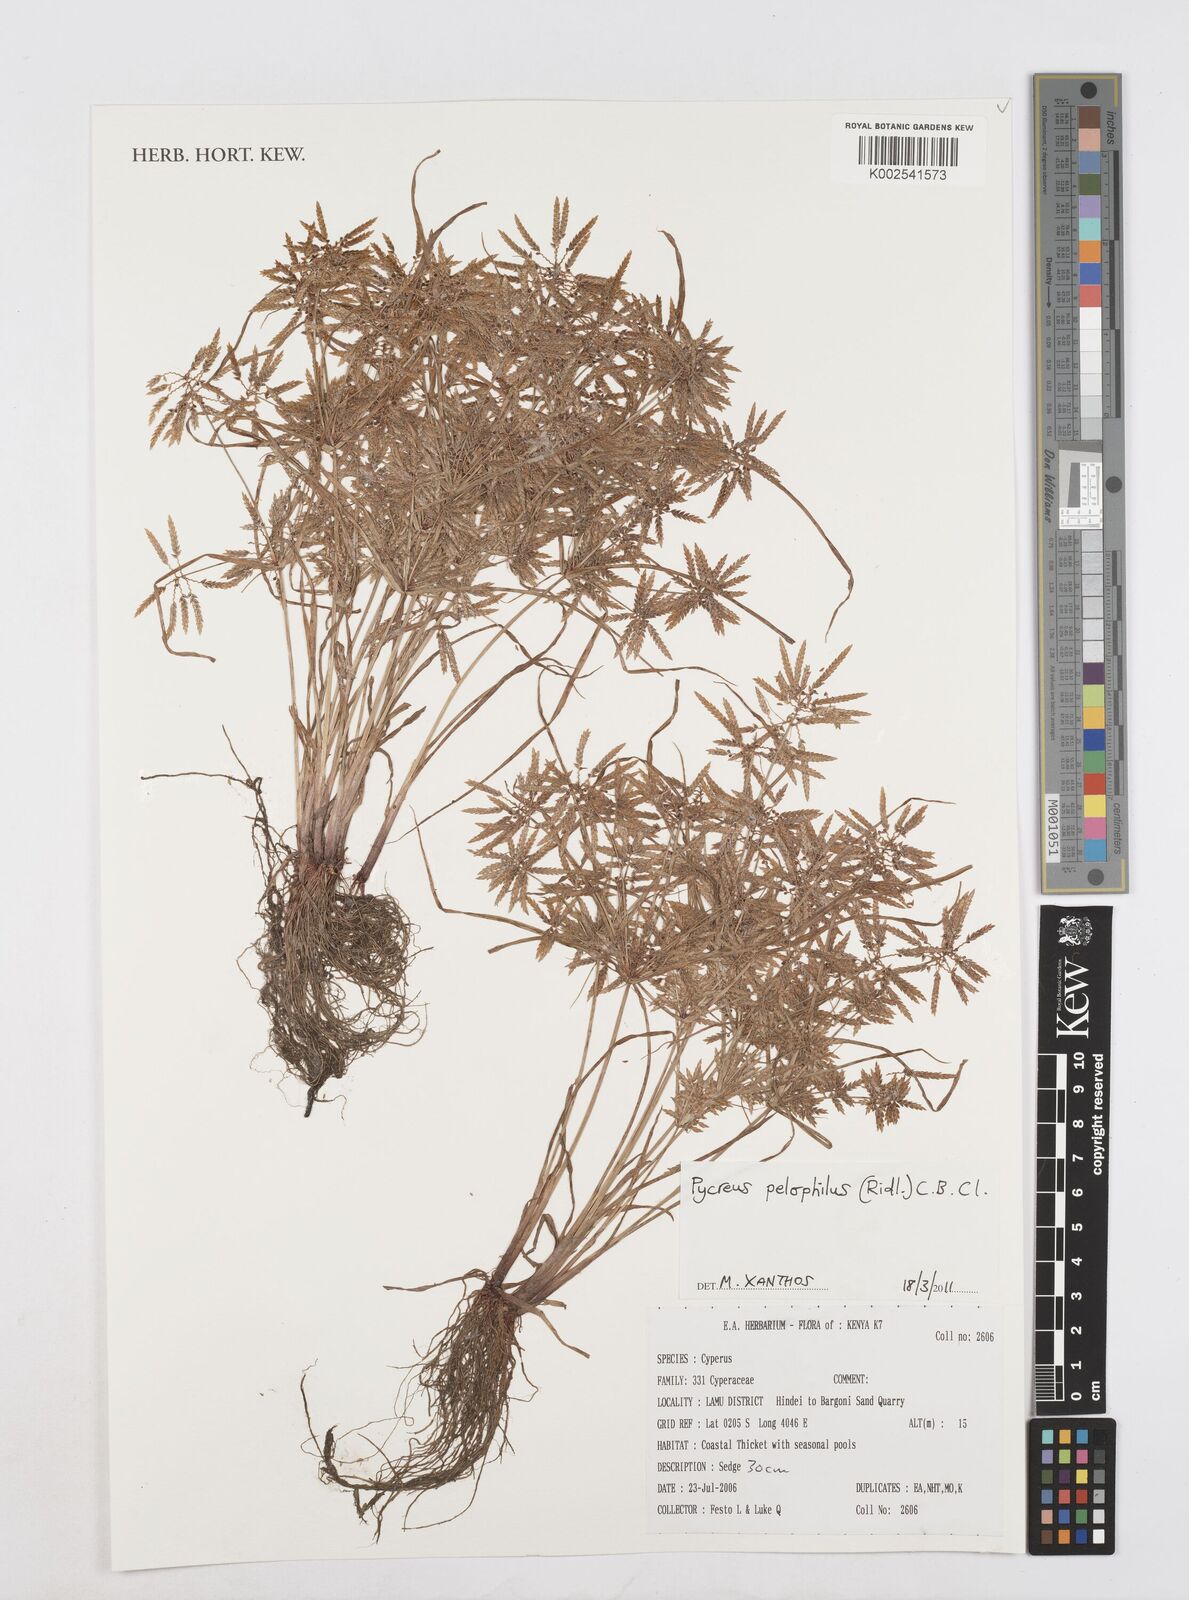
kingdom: Plantae
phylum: Tracheophyta
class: Liliopsida
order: Poales
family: Cyperaceae
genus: Cyperus
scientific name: Cyperus pelophilus
